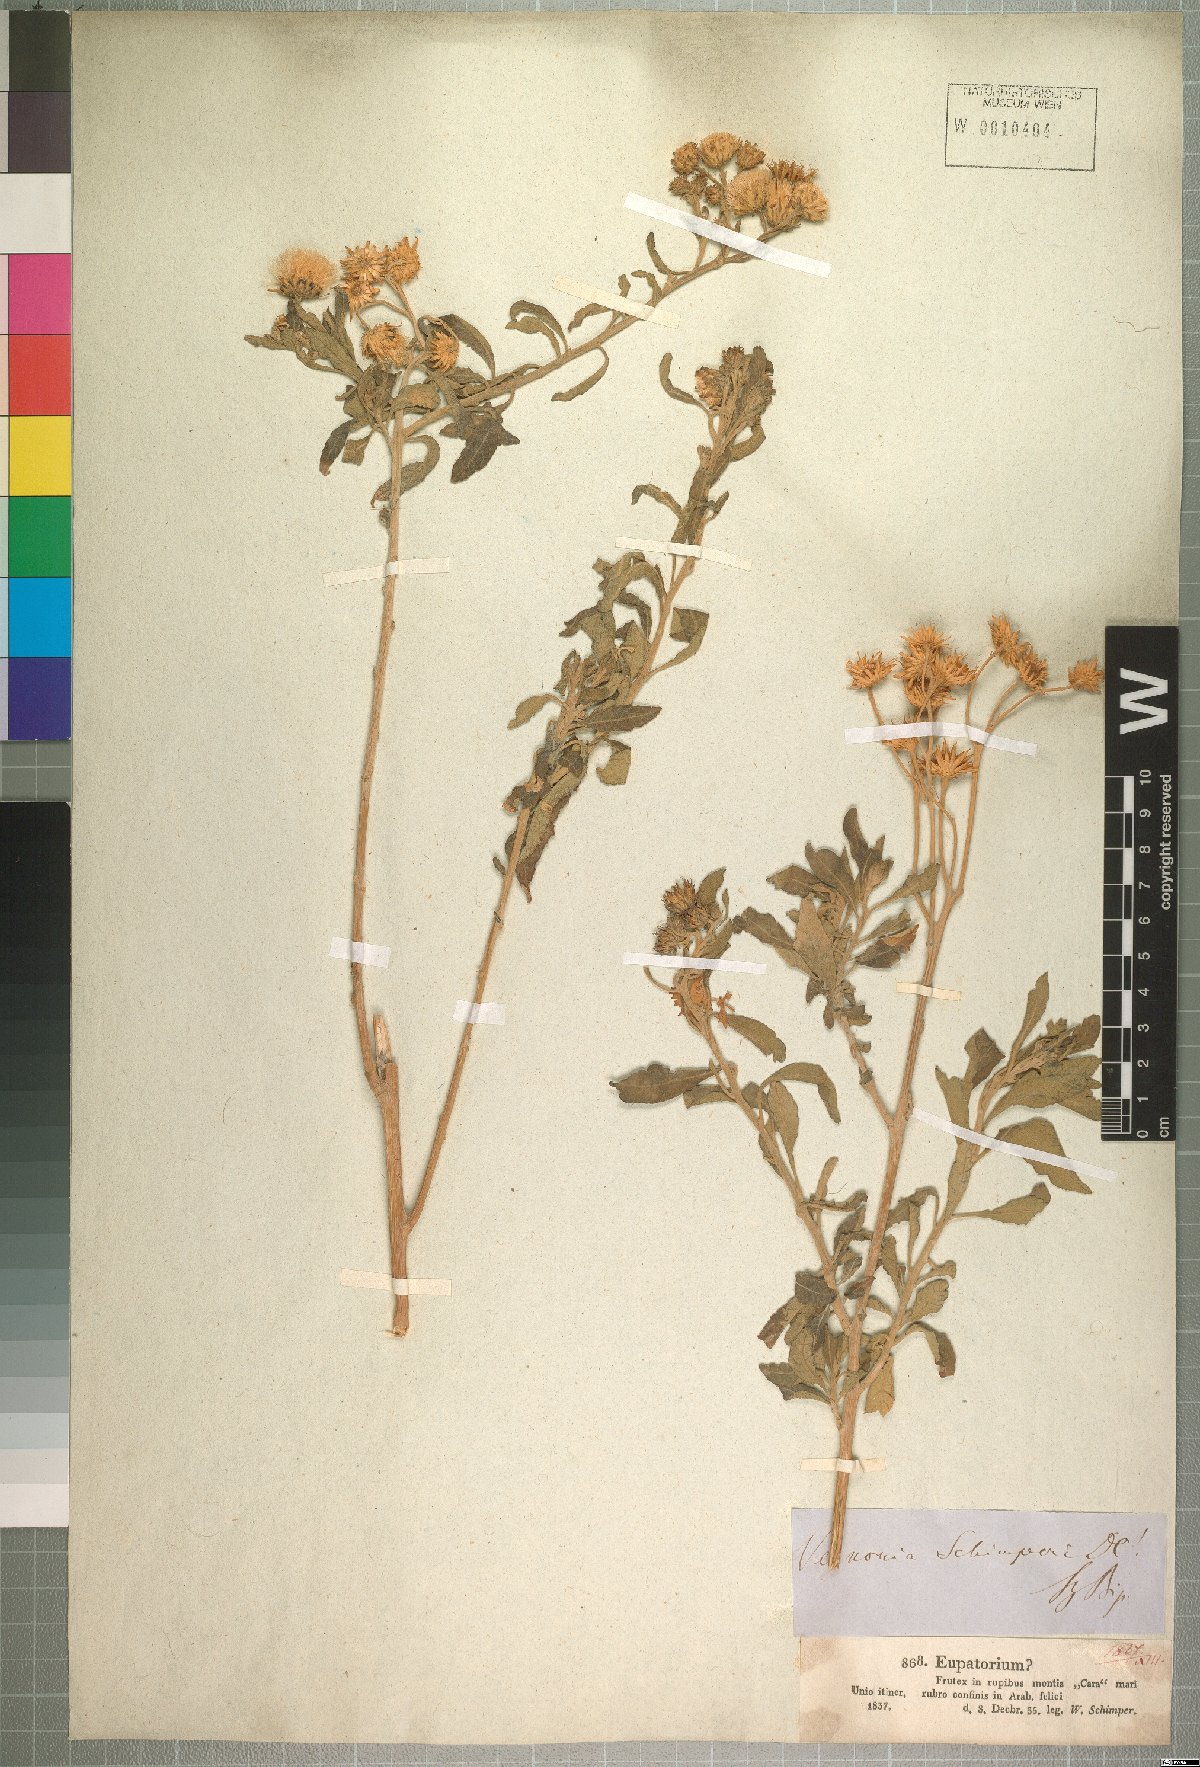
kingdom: Plantae
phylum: Tracheophyta
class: Magnoliopsida
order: Asterales
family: Asteraceae
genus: Baccharoides
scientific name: Baccharoides schimperi
